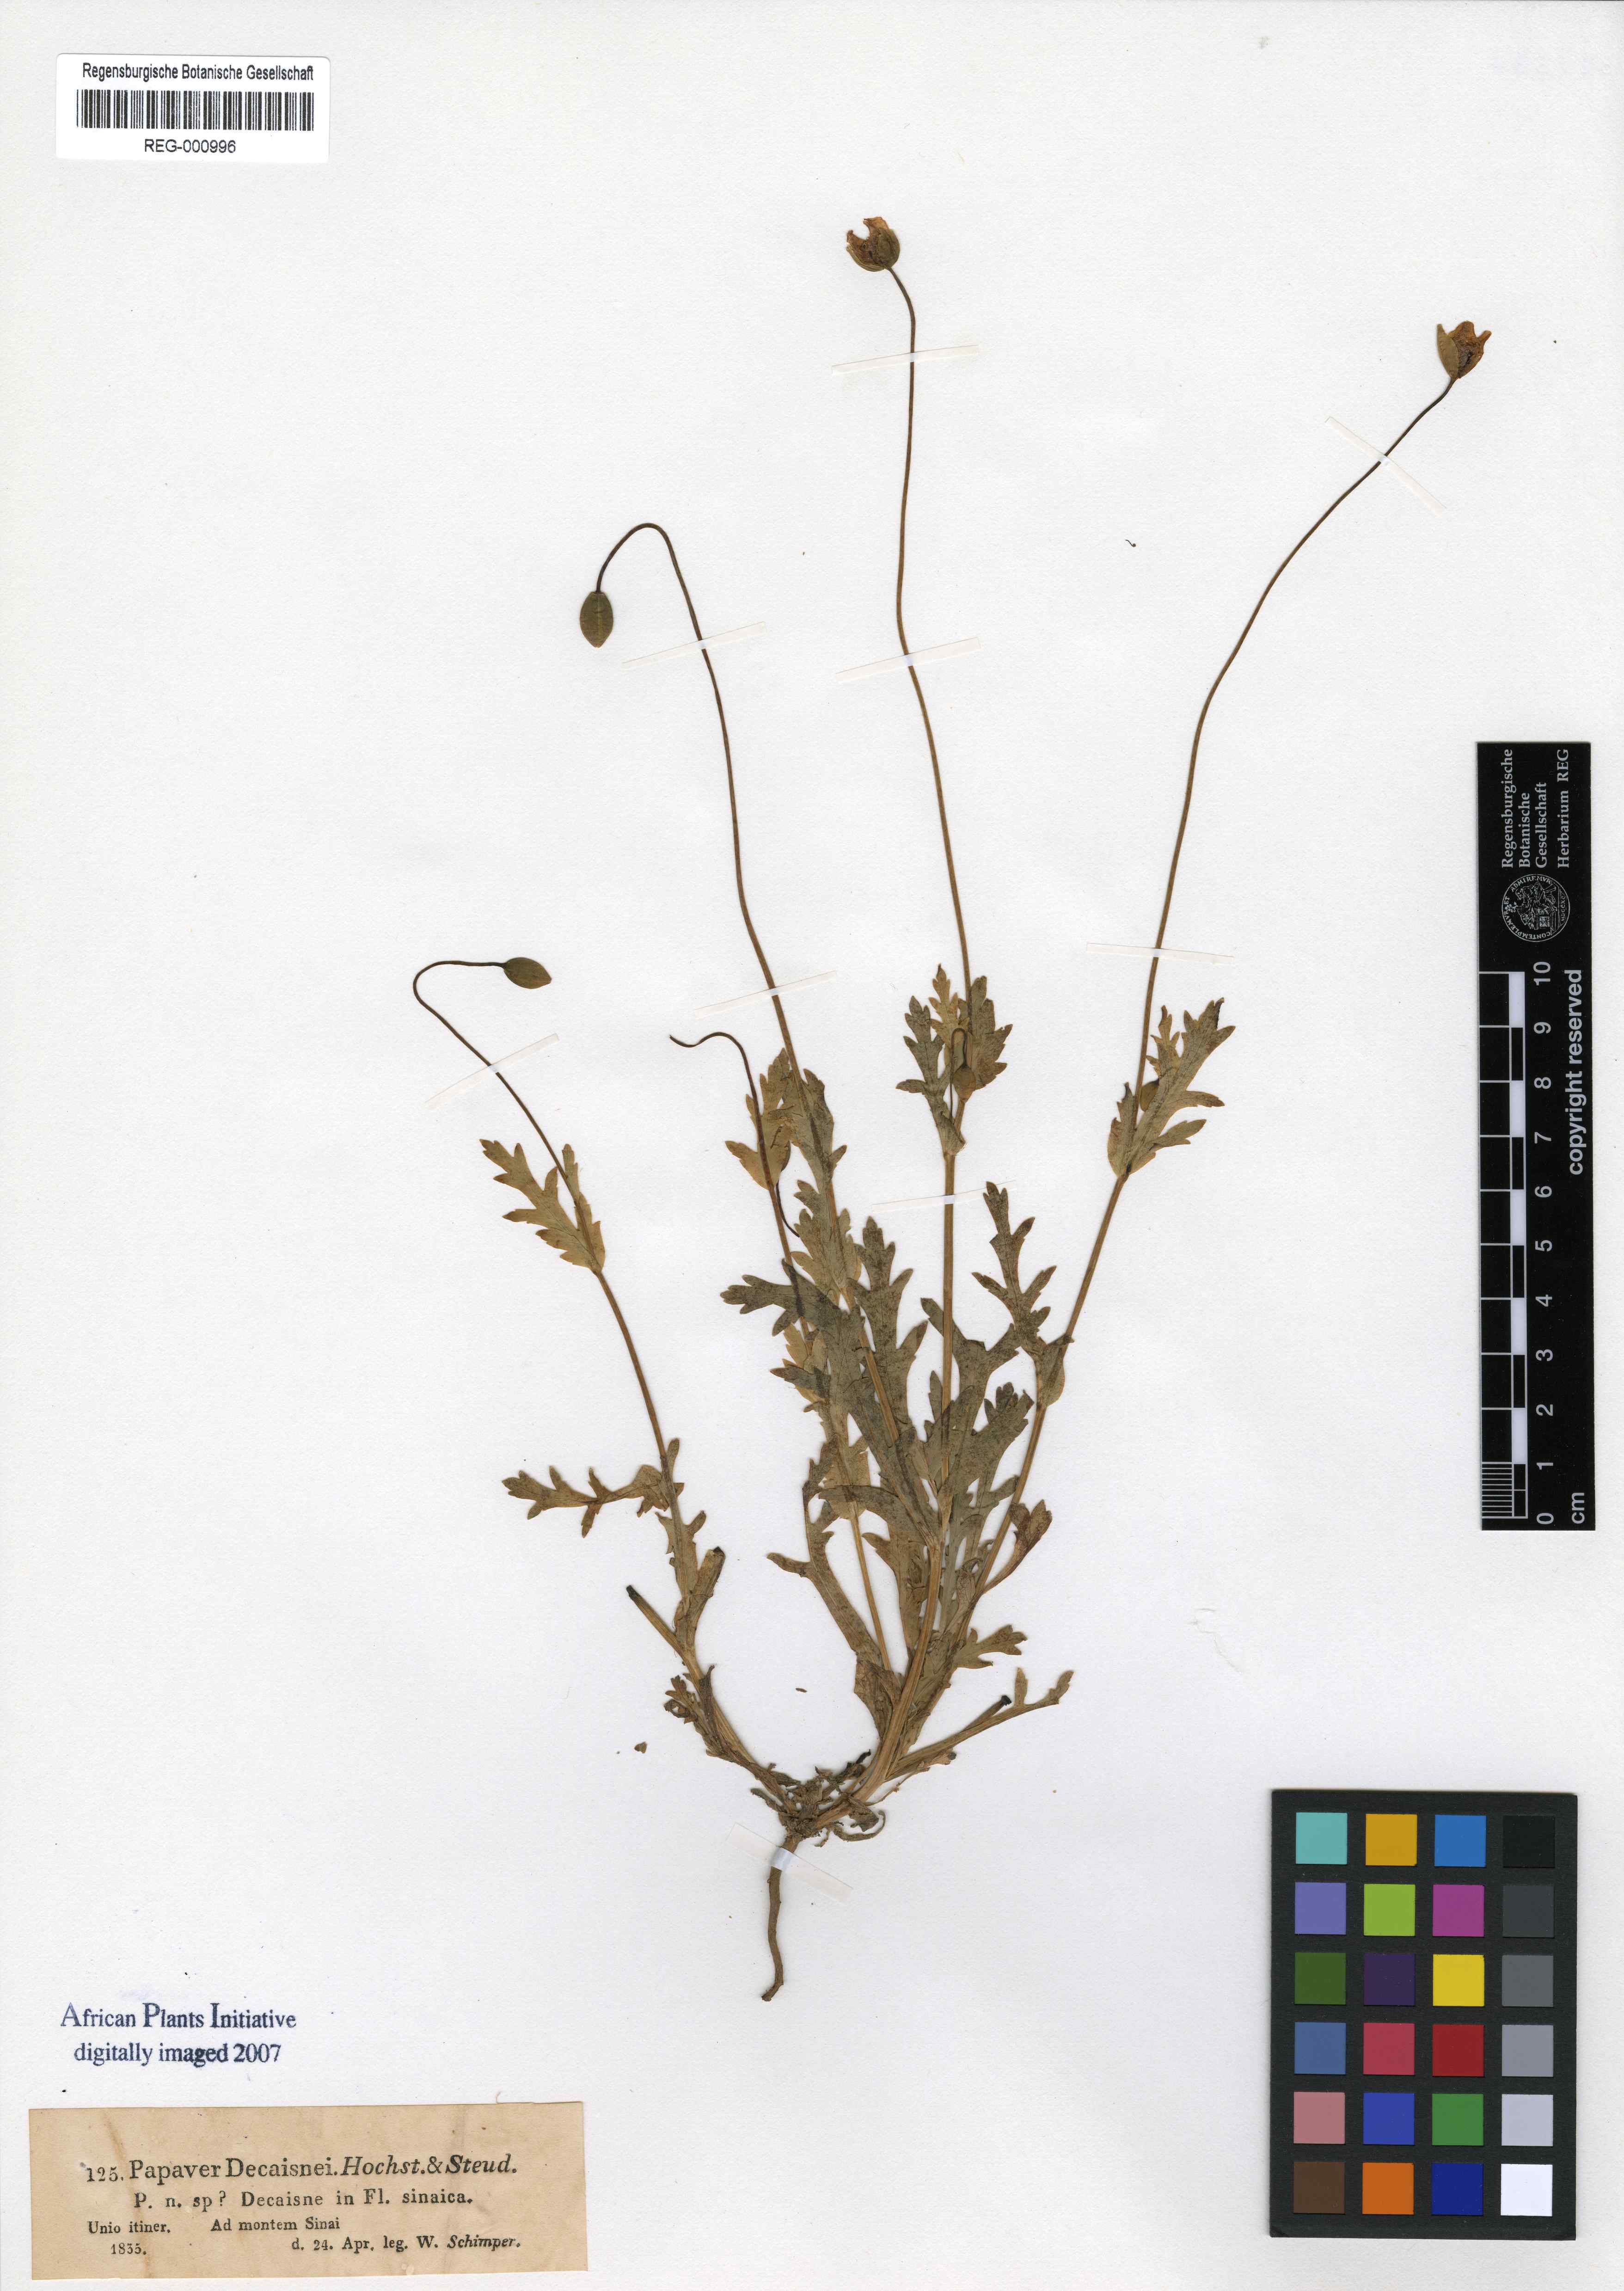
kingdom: Plantae
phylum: Tracheophyta
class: Magnoliopsida
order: Ranunculales
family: Papaveraceae
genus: Papaver
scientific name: Papaver decaisnei
